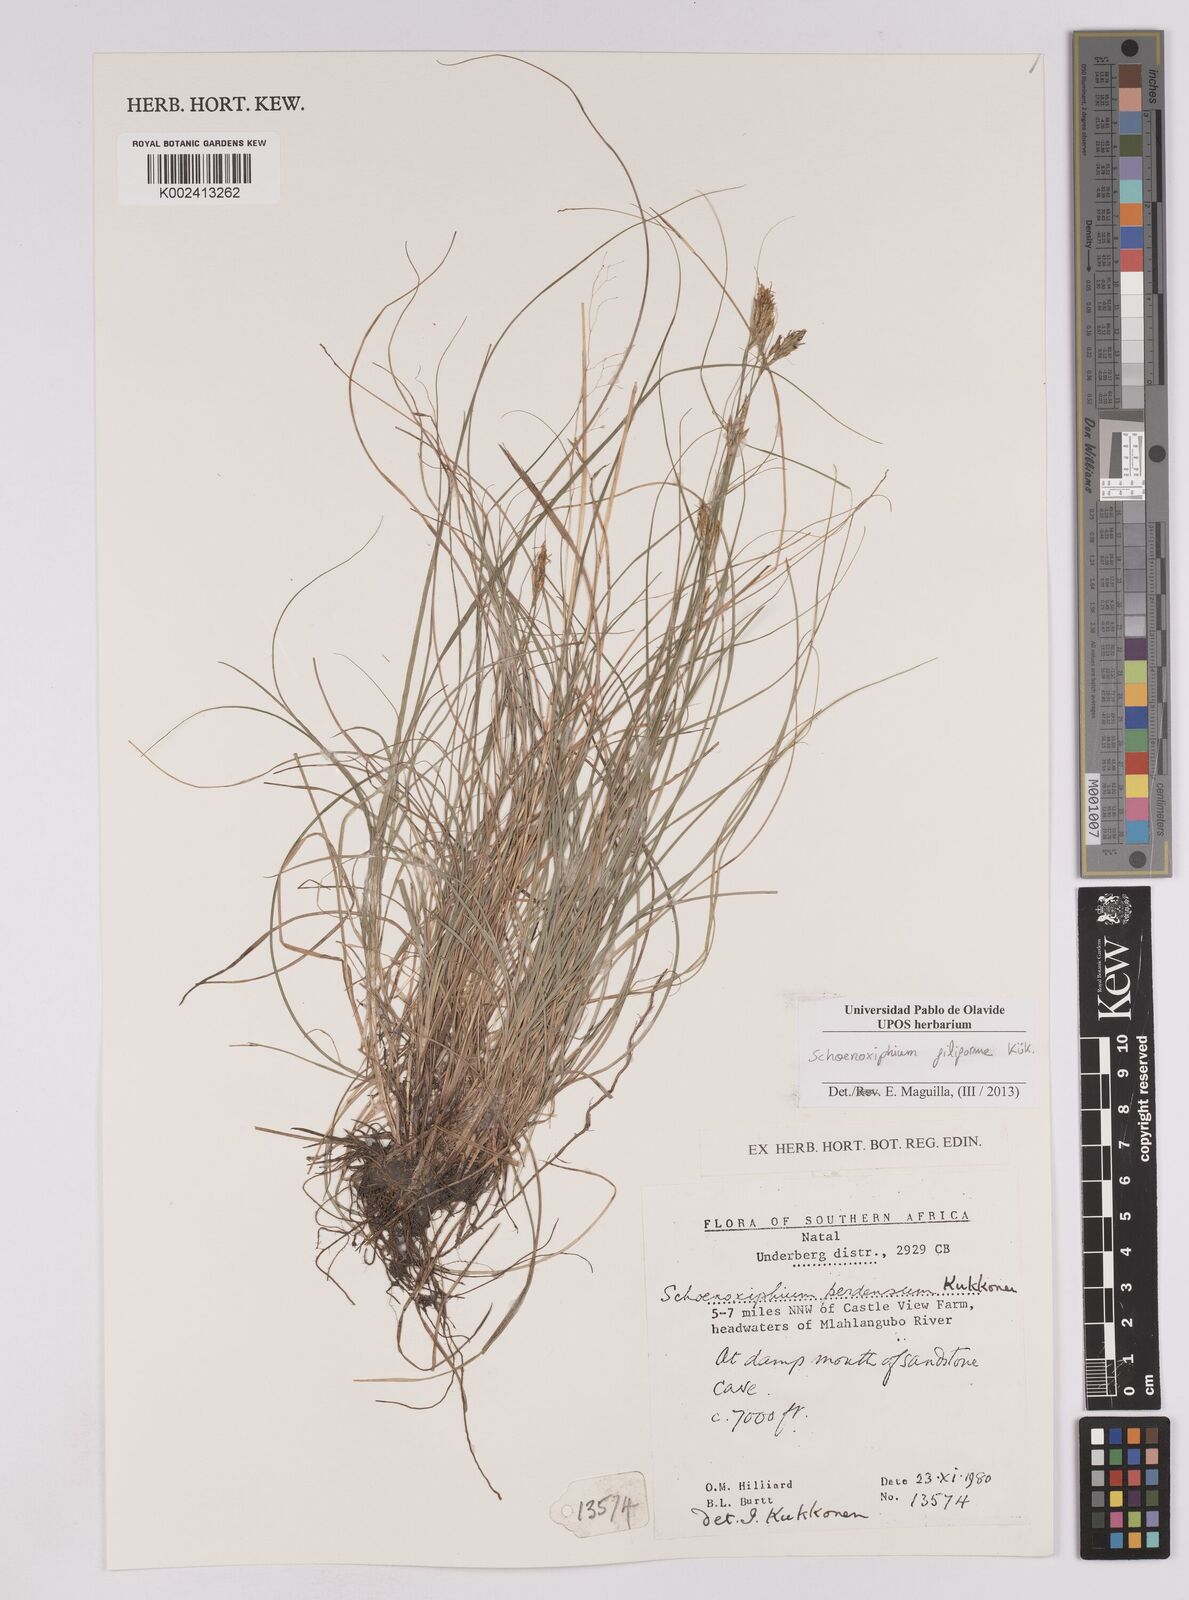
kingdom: Plantae
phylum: Tracheophyta
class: Liliopsida
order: Poales
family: Cyperaceae
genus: Carex
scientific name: Carex killickii
